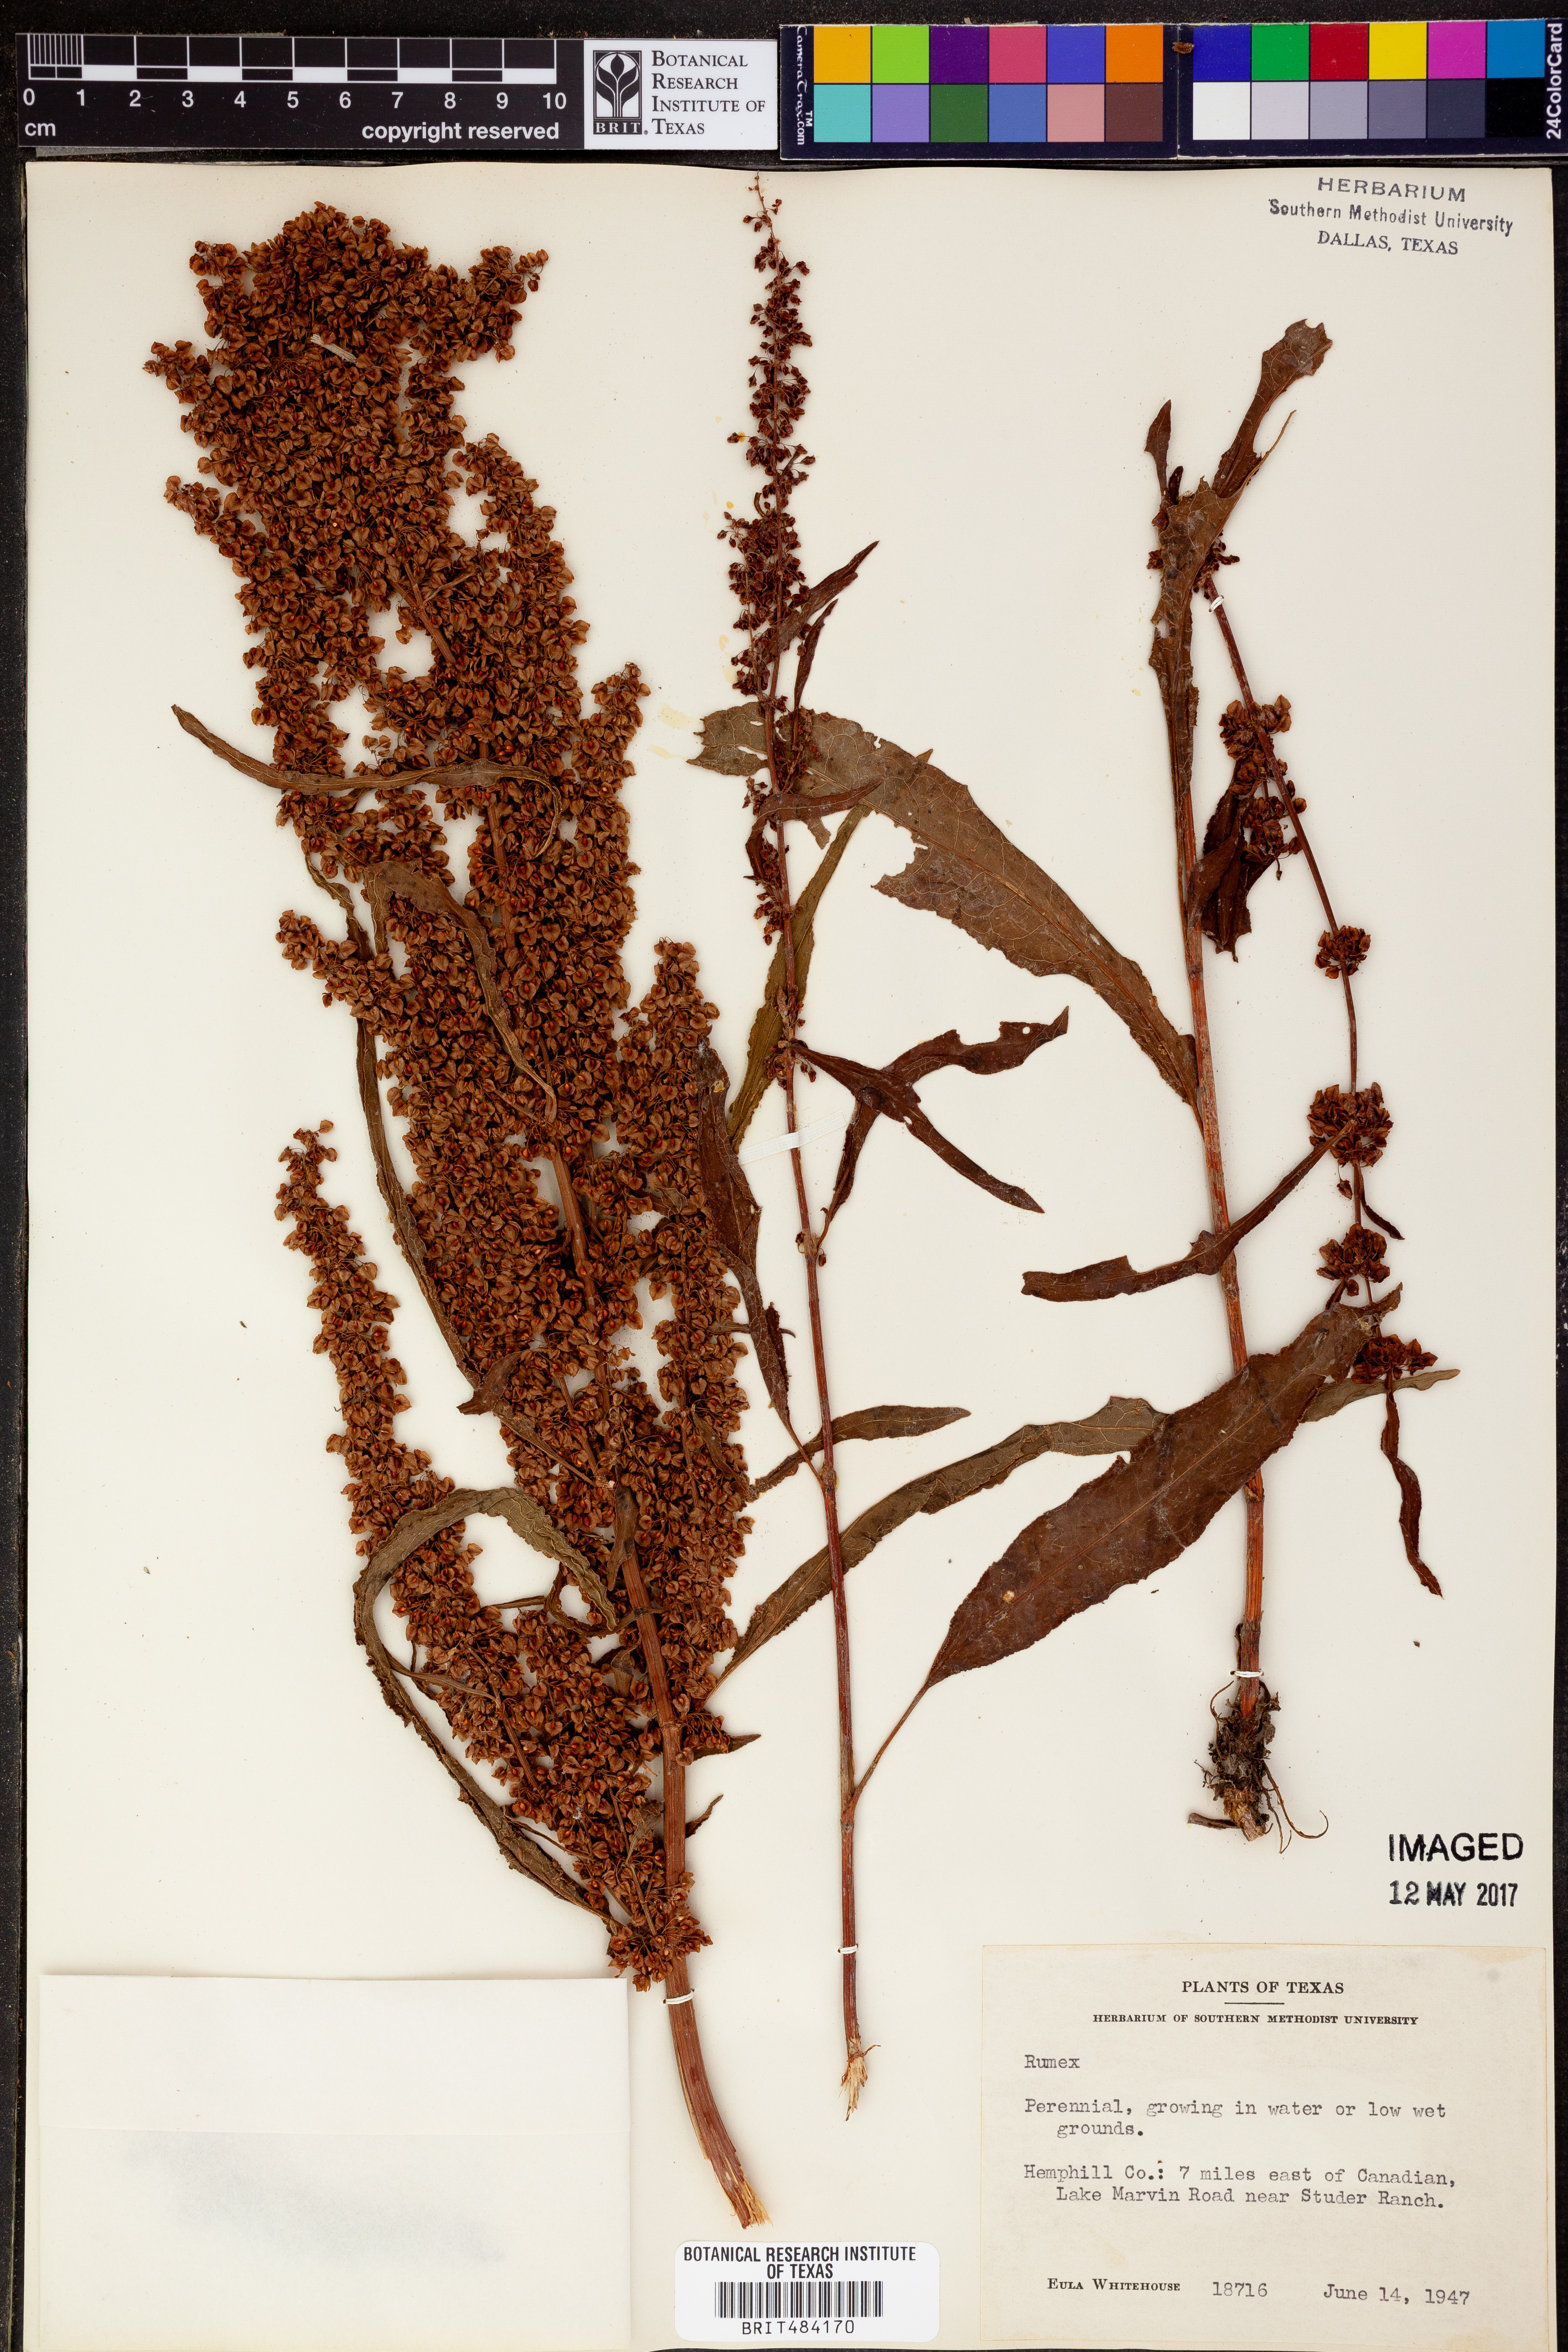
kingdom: Plantae
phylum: Tracheophyta
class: Magnoliopsida
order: Caryophyllales
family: Polygonaceae
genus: Rumex
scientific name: Rumex
